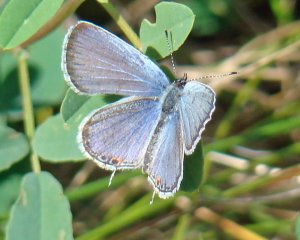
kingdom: Animalia
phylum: Arthropoda
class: Insecta
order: Lepidoptera
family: Lycaenidae
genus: Elkalyce
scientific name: Elkalyce comyntas
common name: Eastern Tailed-Blue
